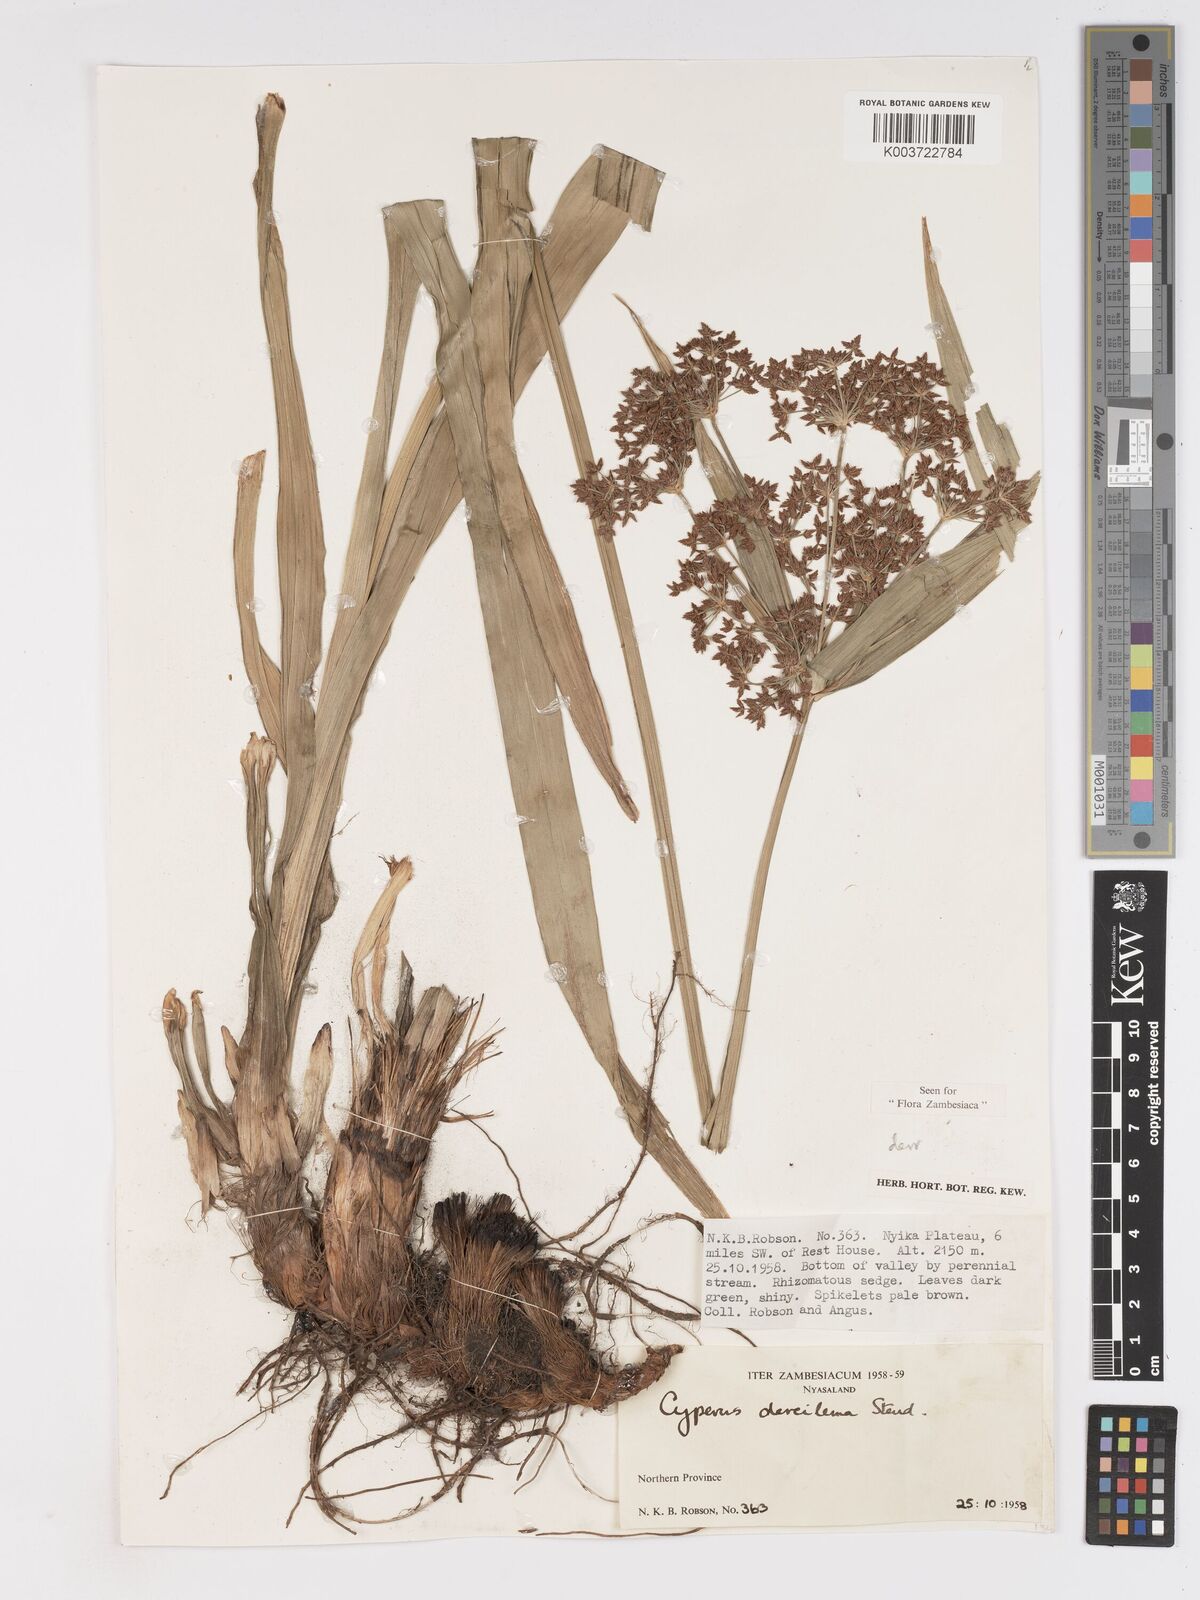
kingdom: Plantae
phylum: Tracheophyta
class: Liliopsida
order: Poales
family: Cyperaceae
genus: Cyperus
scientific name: Cyperus derreilema
